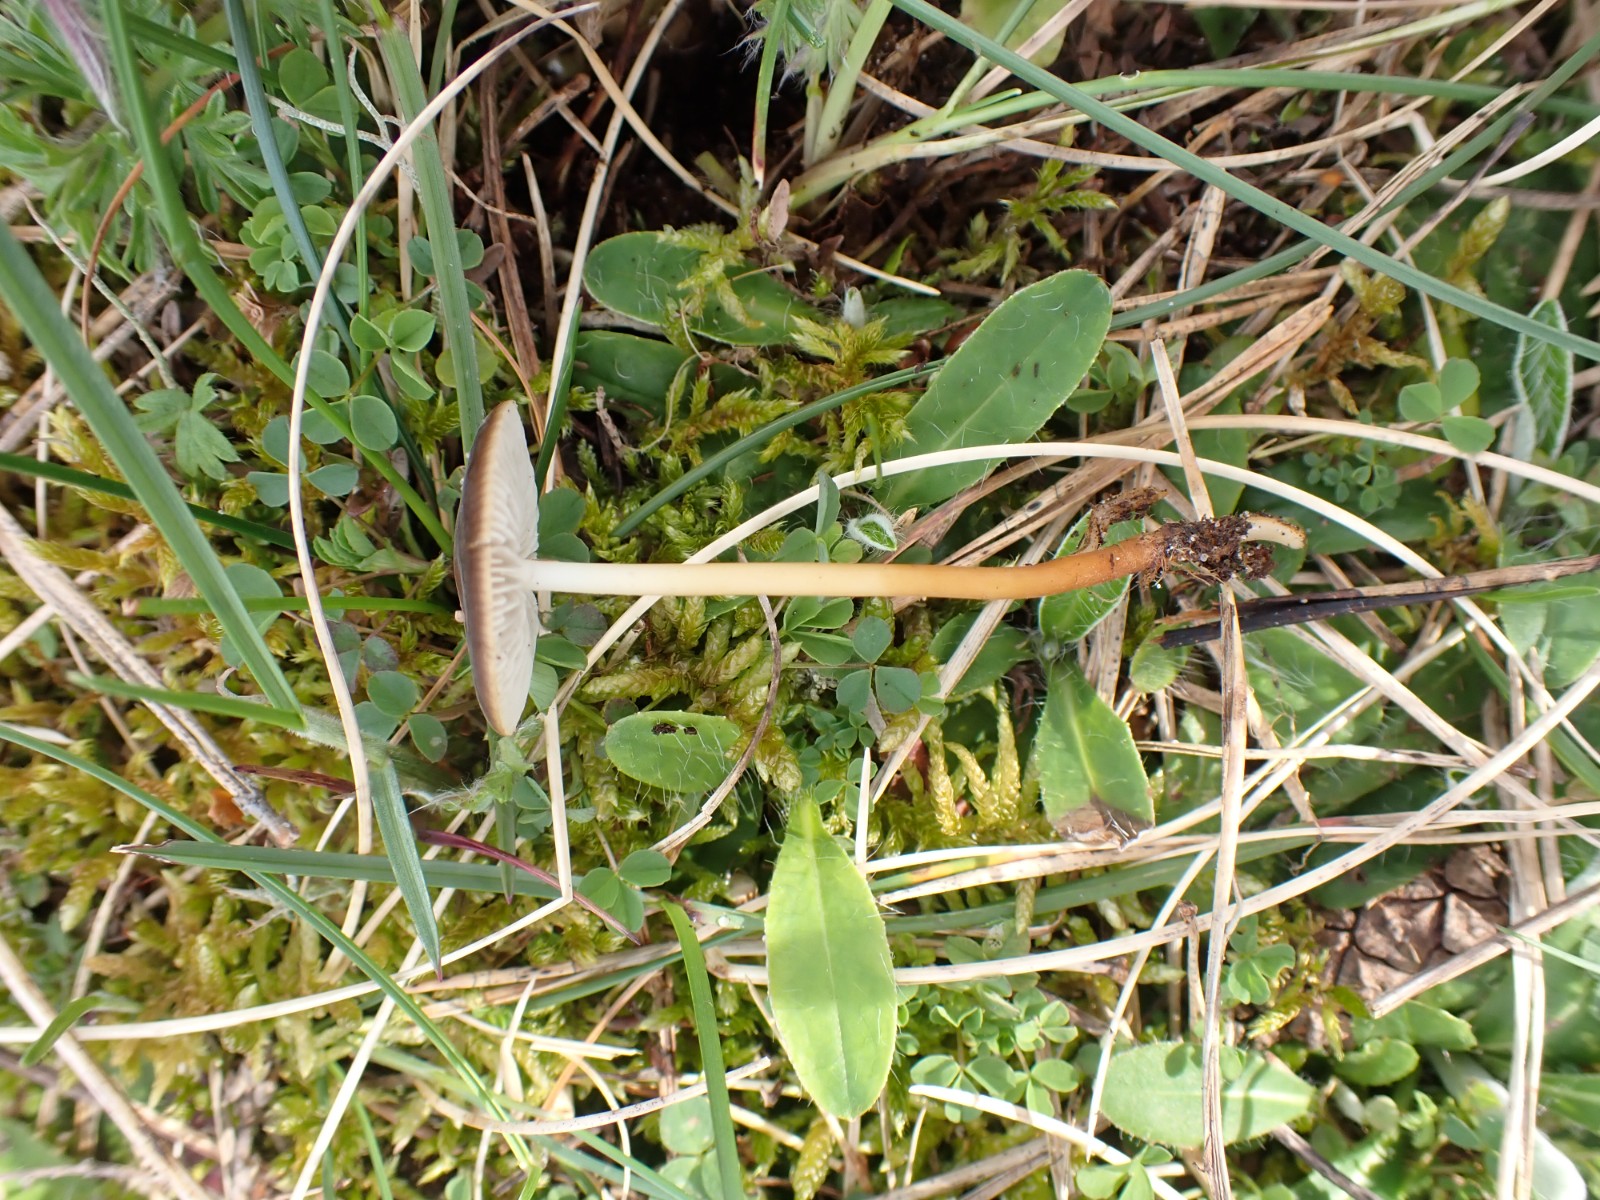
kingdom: Fungi
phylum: Basidiomycota
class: Agaricomycetes
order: Agaricales
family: Physalacriaceae
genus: Strobilurus
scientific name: Strobilurus
